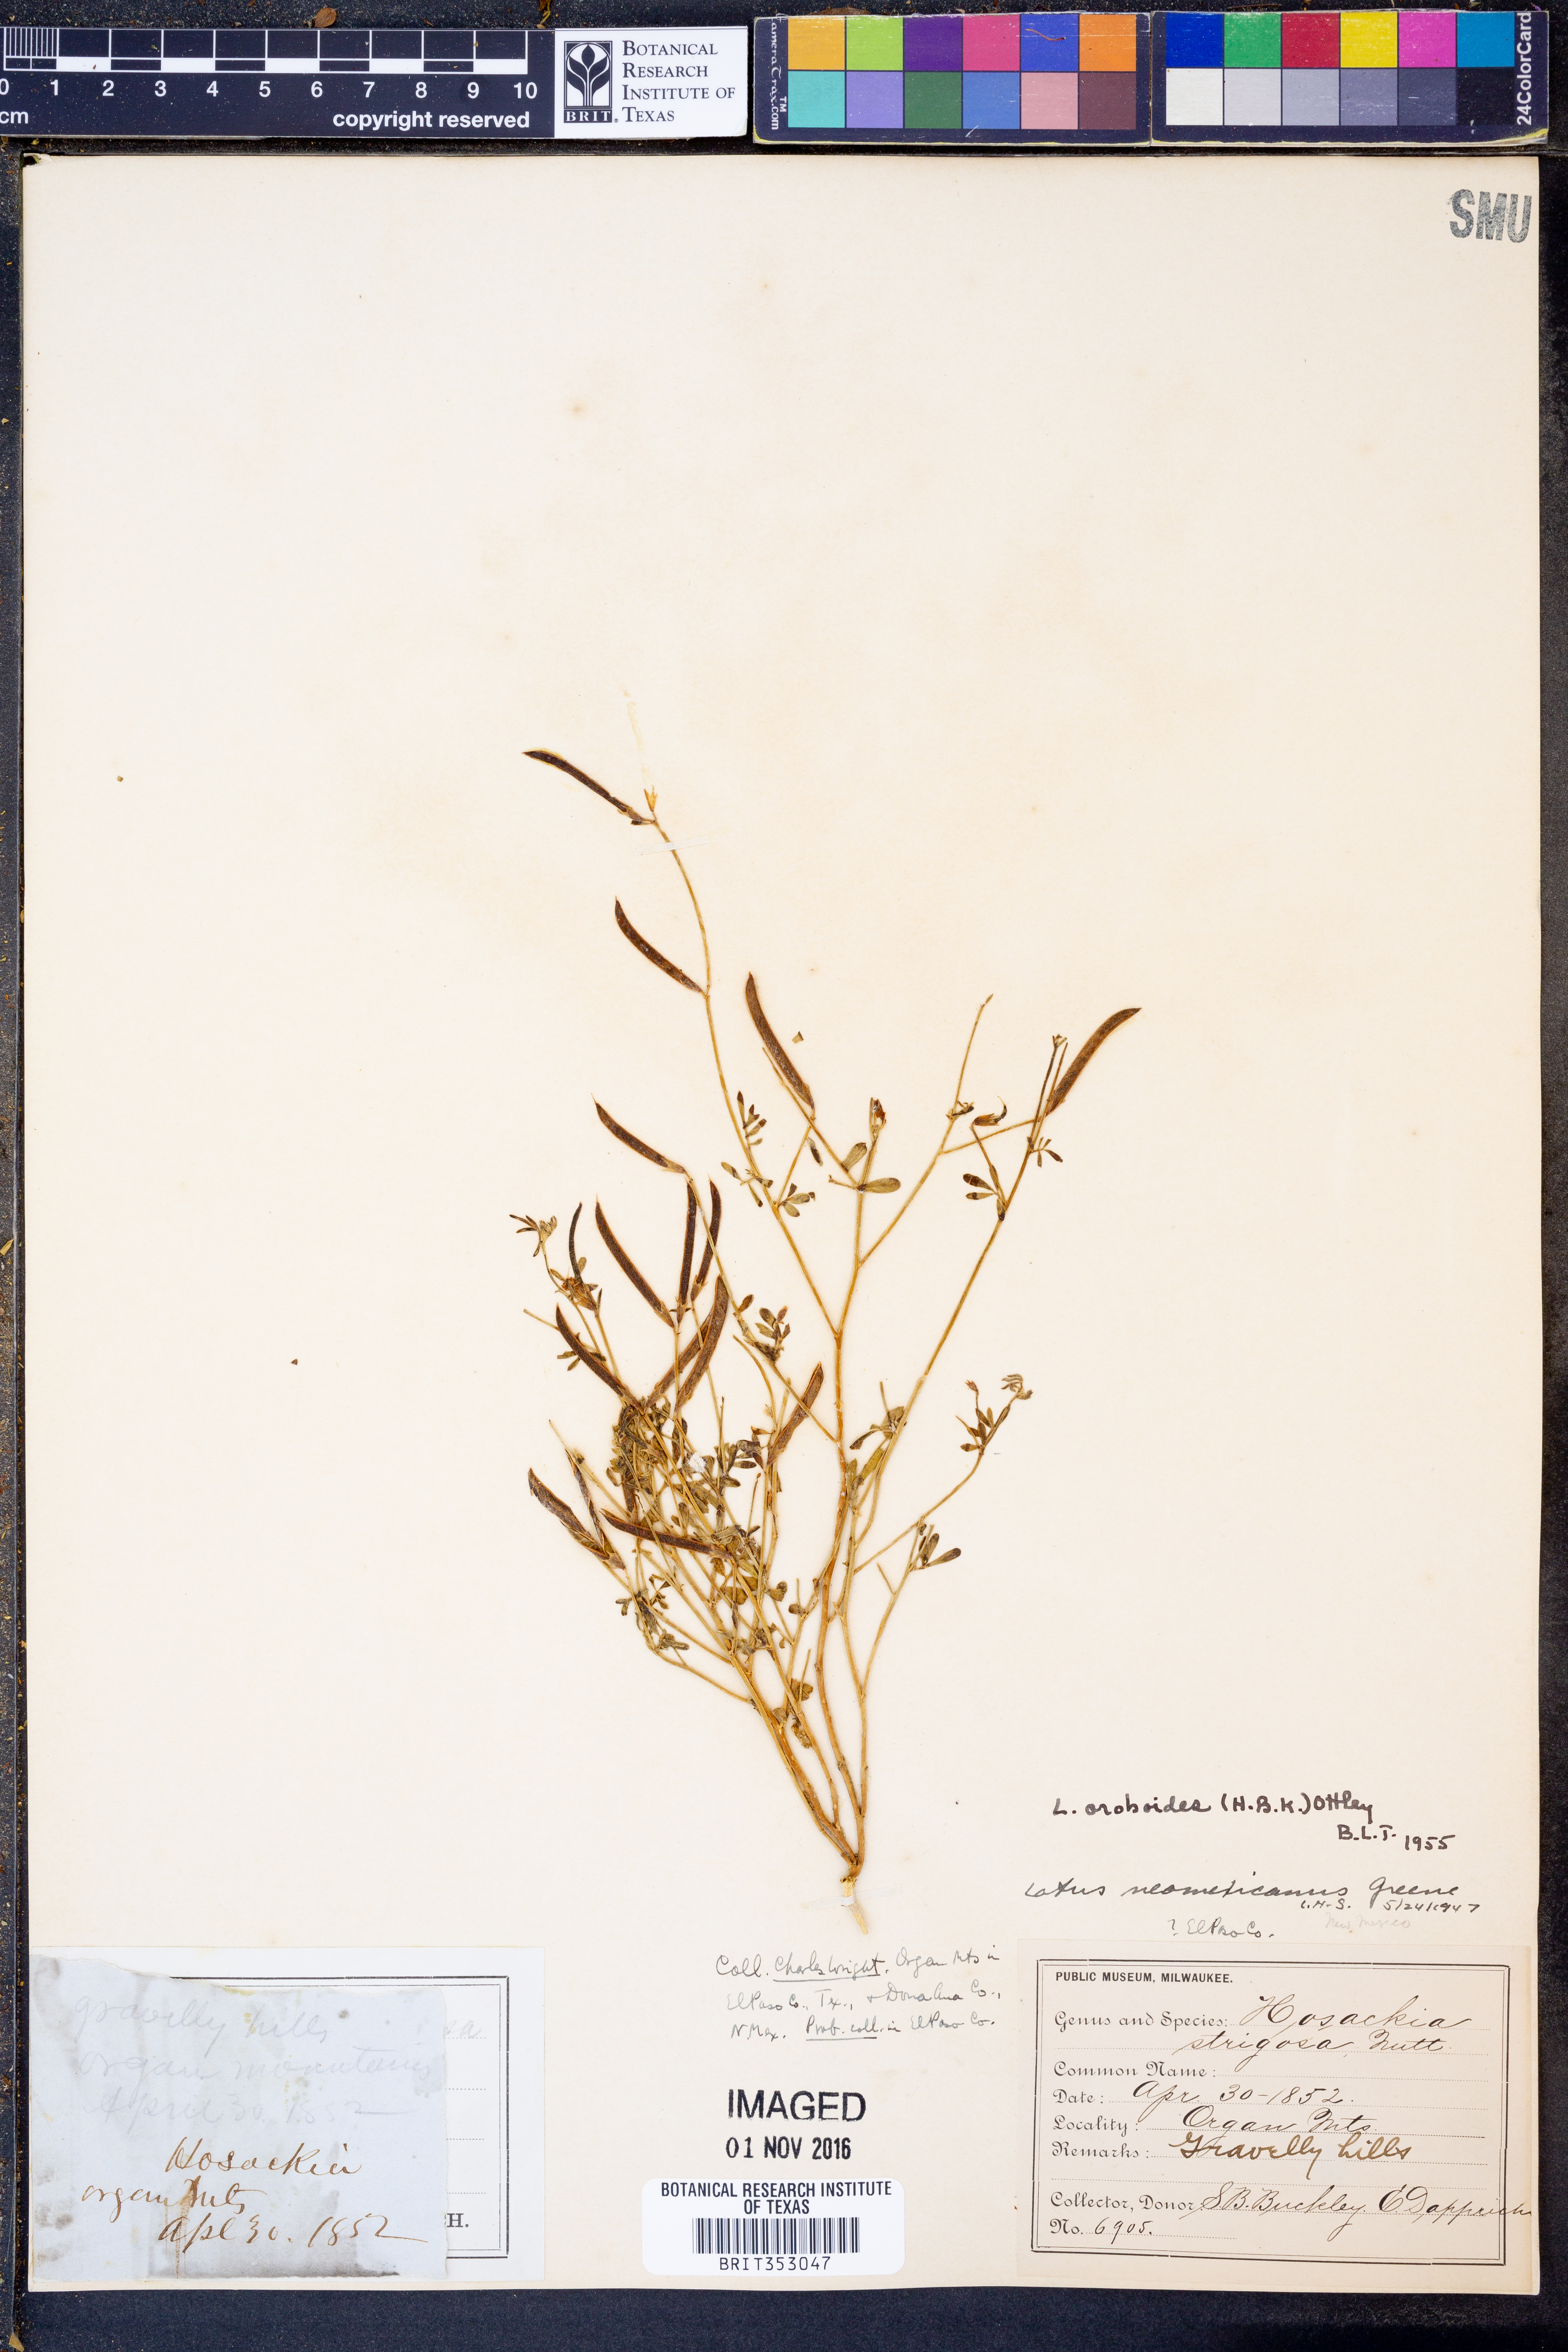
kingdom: Plantae
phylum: Tracheophyta
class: Magnoliopsida
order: Fabales
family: Fabaceae
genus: Acmispon
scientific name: Acmispon oroboides
